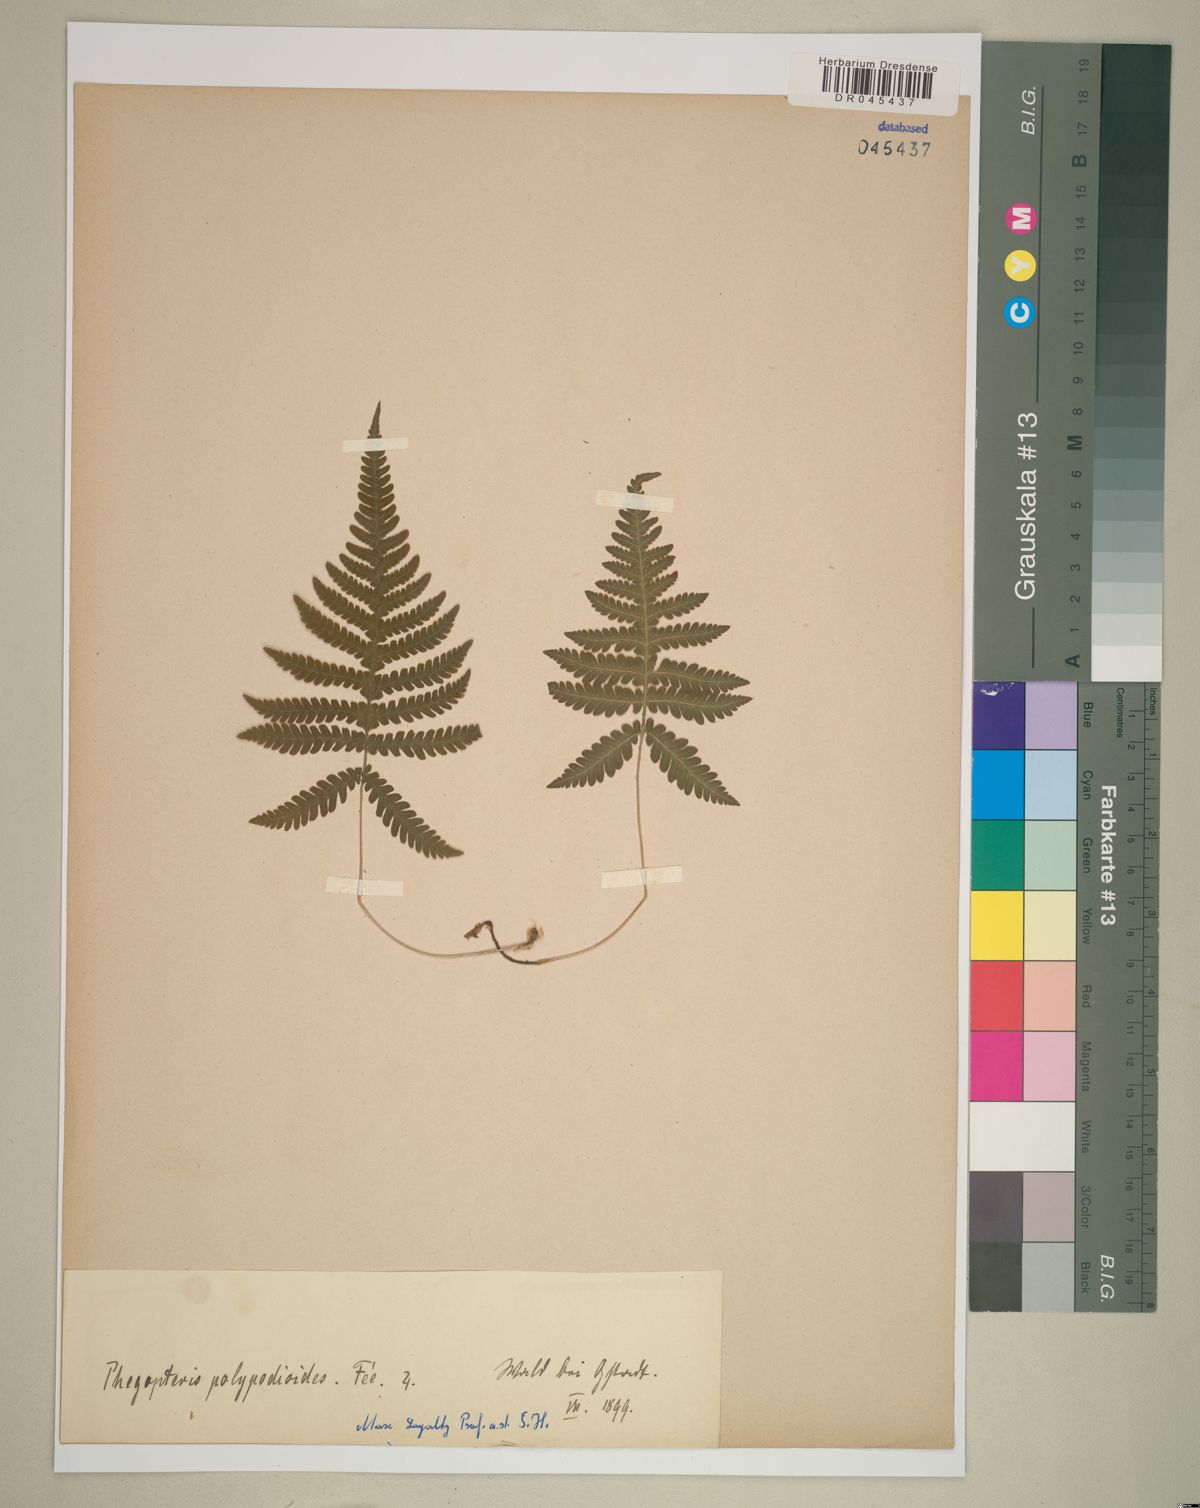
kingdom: Plantae
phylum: Tracheophyta
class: Polypodiopsida
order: Polypodiales
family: Thelypteridaceae
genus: Phegopteris
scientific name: Phegopteris connectilis
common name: Beech fern
